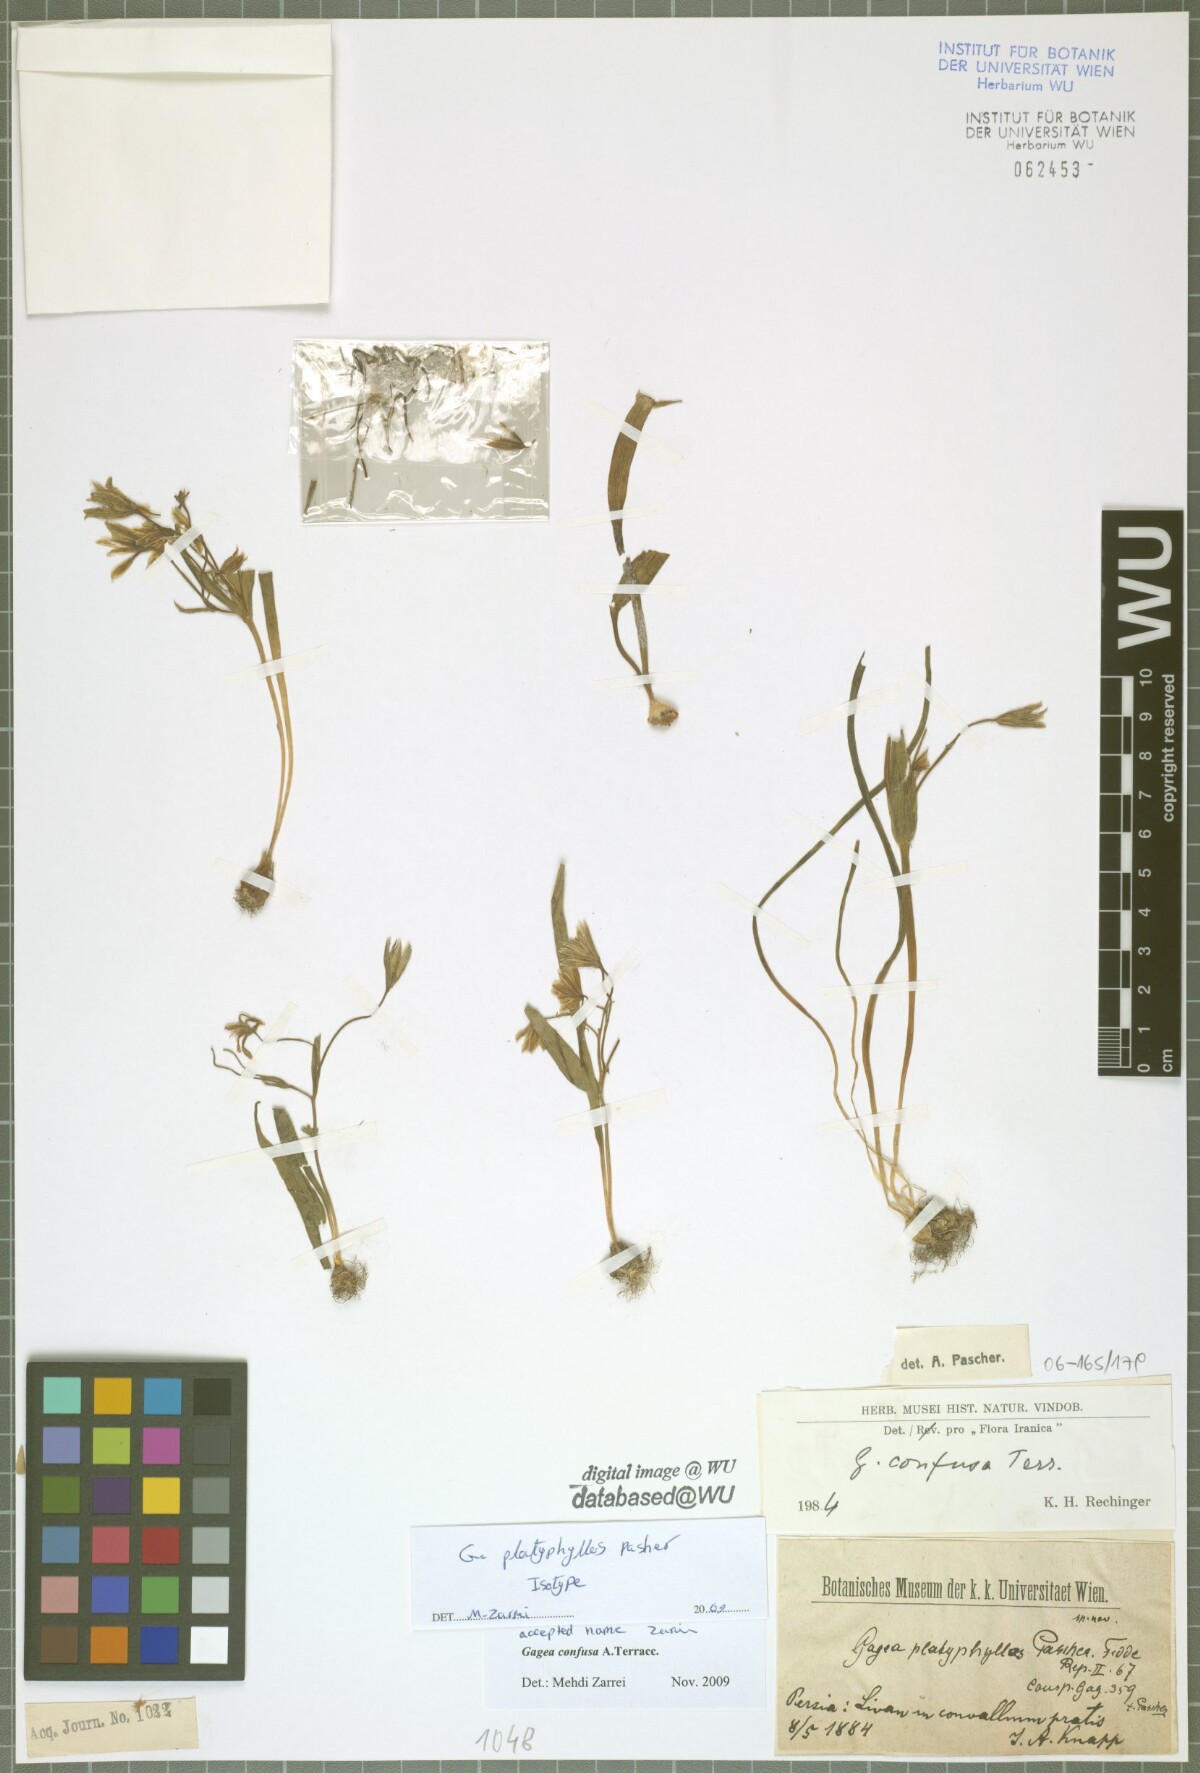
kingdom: Plantae
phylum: Tracheophyta
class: Liliopsida
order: Liliales
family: Liliaceae
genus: Gagea
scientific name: Gagea confusa
